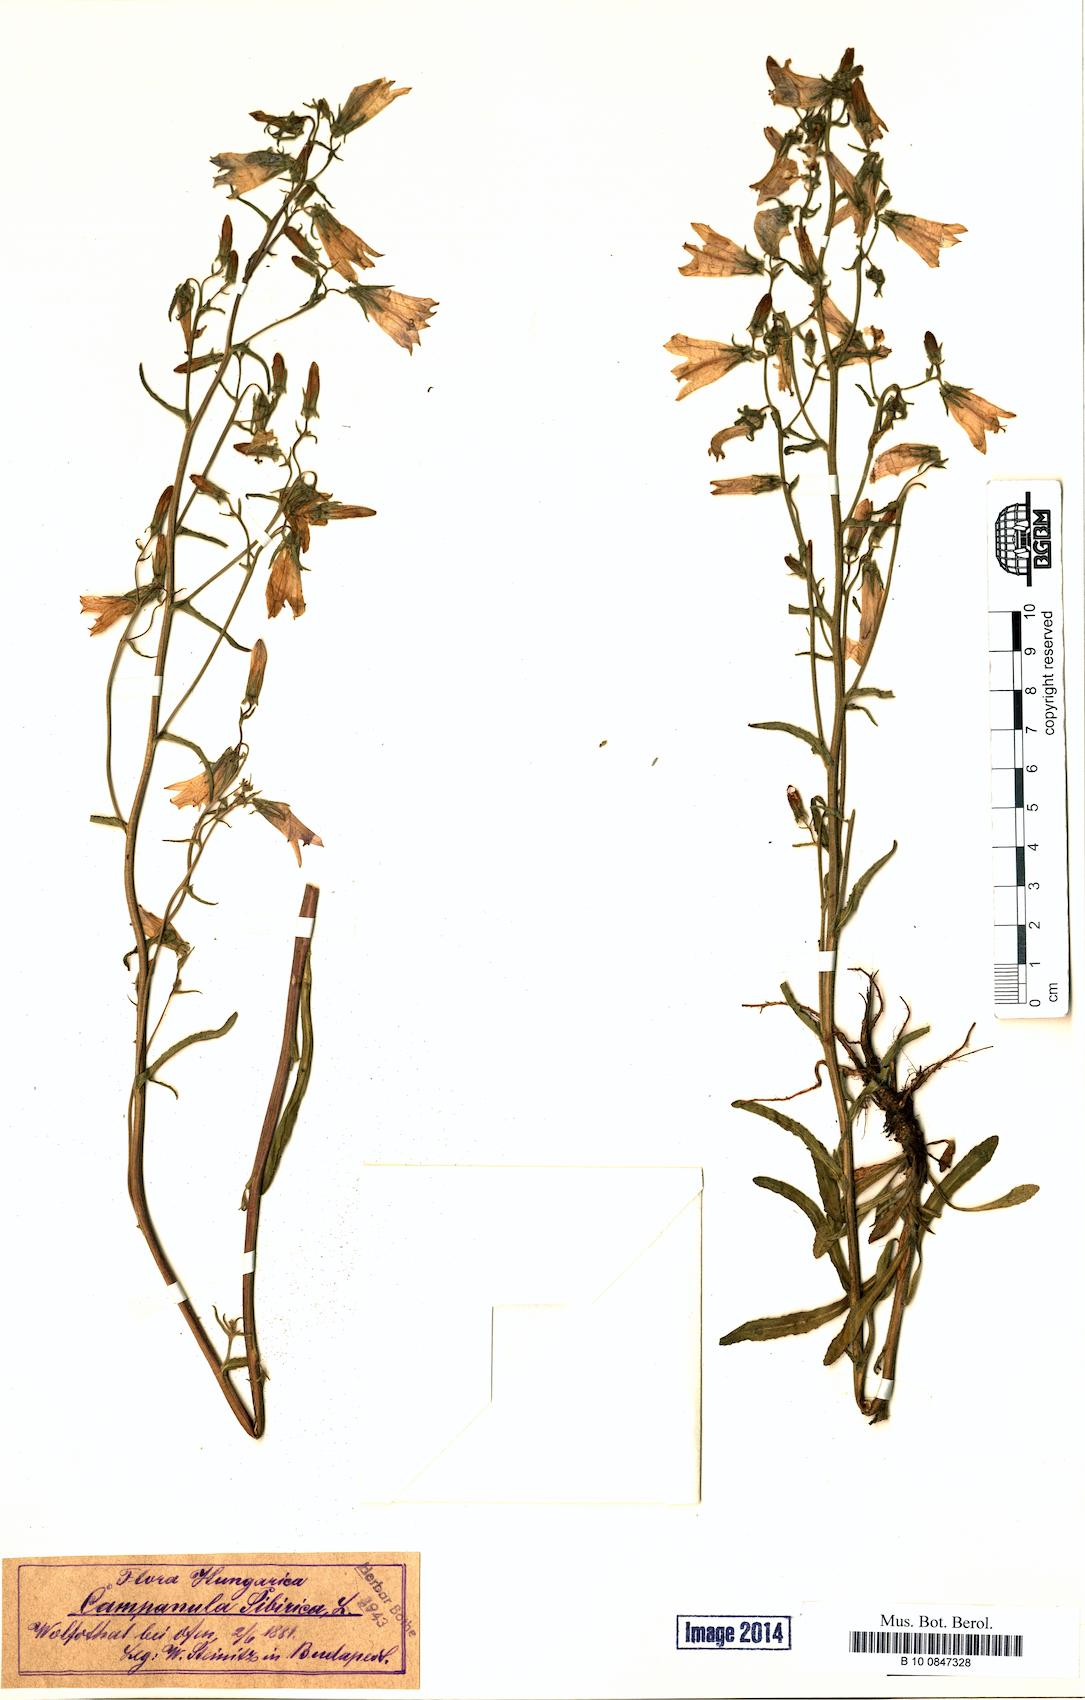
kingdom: Plantae
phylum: Tracheophyta
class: Magnoliopsida
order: Asterales
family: Campanulaceae
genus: Campanula
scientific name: Campanula sibirica
